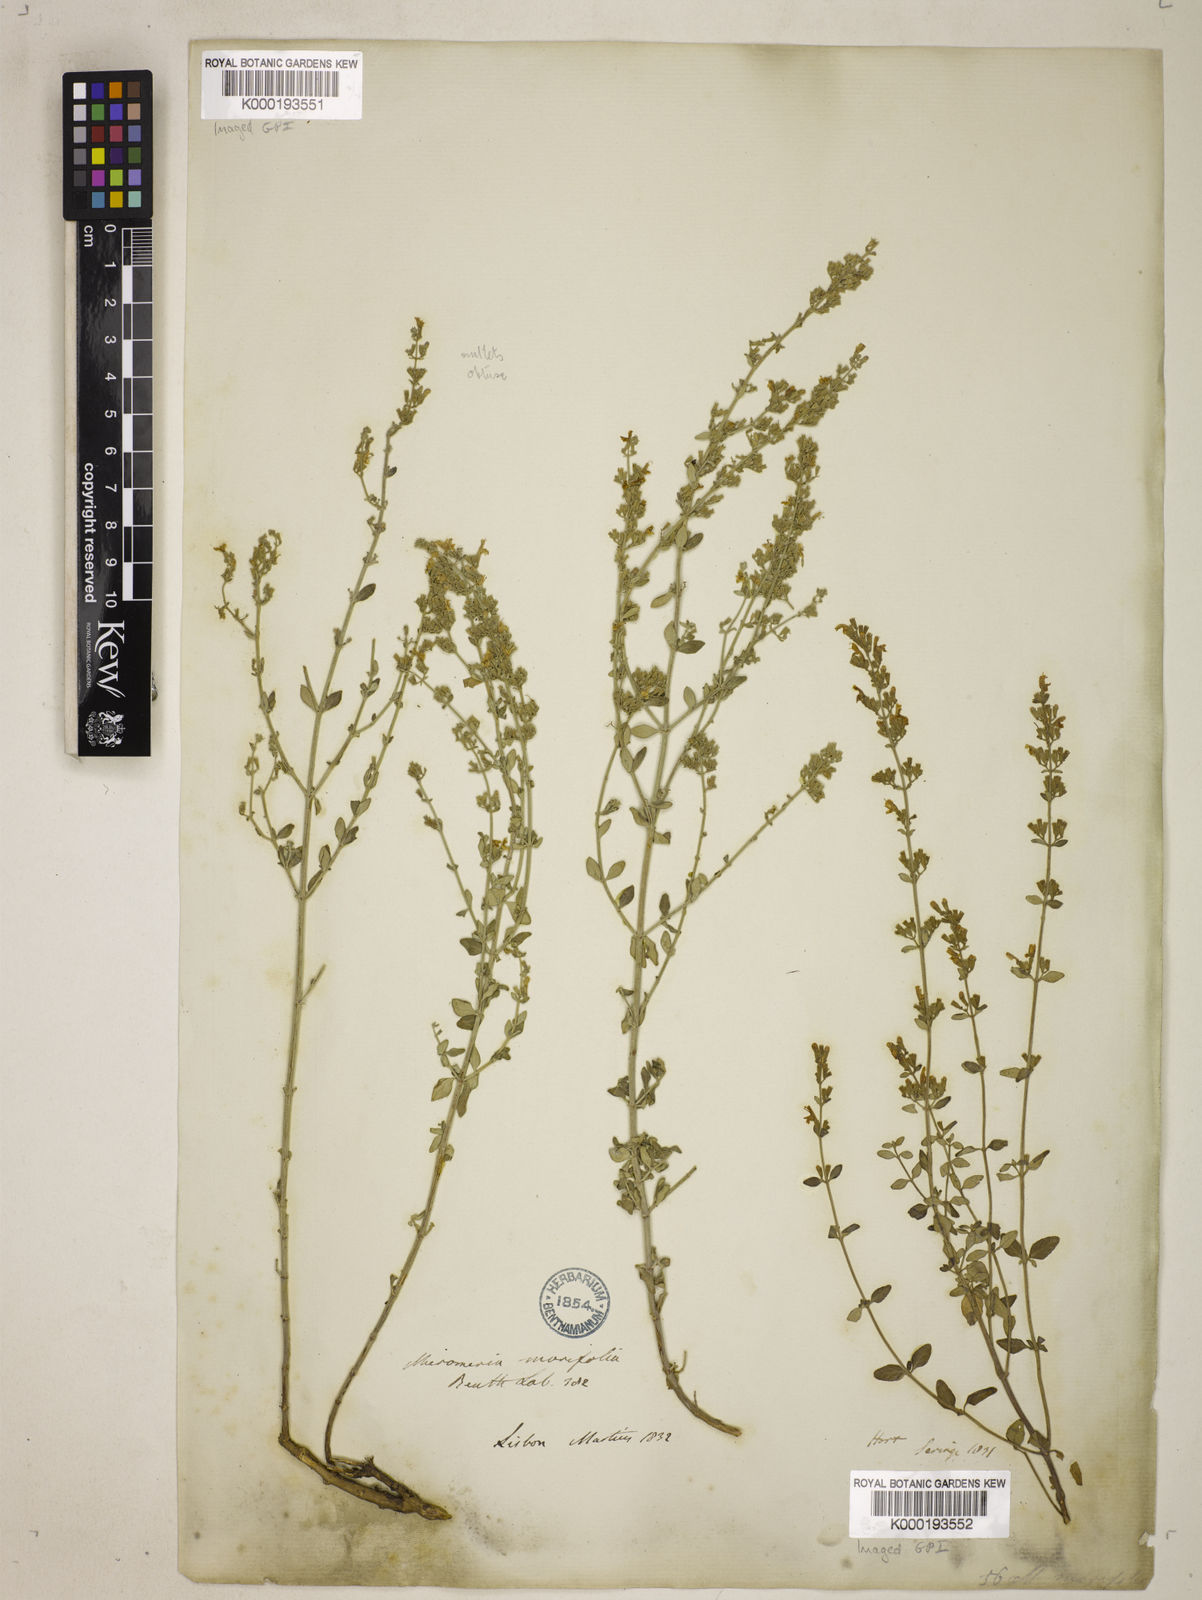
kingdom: Plantae
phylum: Tracheophyta
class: Magnoliopsida
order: Lamiales
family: Lamiaceae
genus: Clinopodium
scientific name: Clinopodium serpyllifolium
